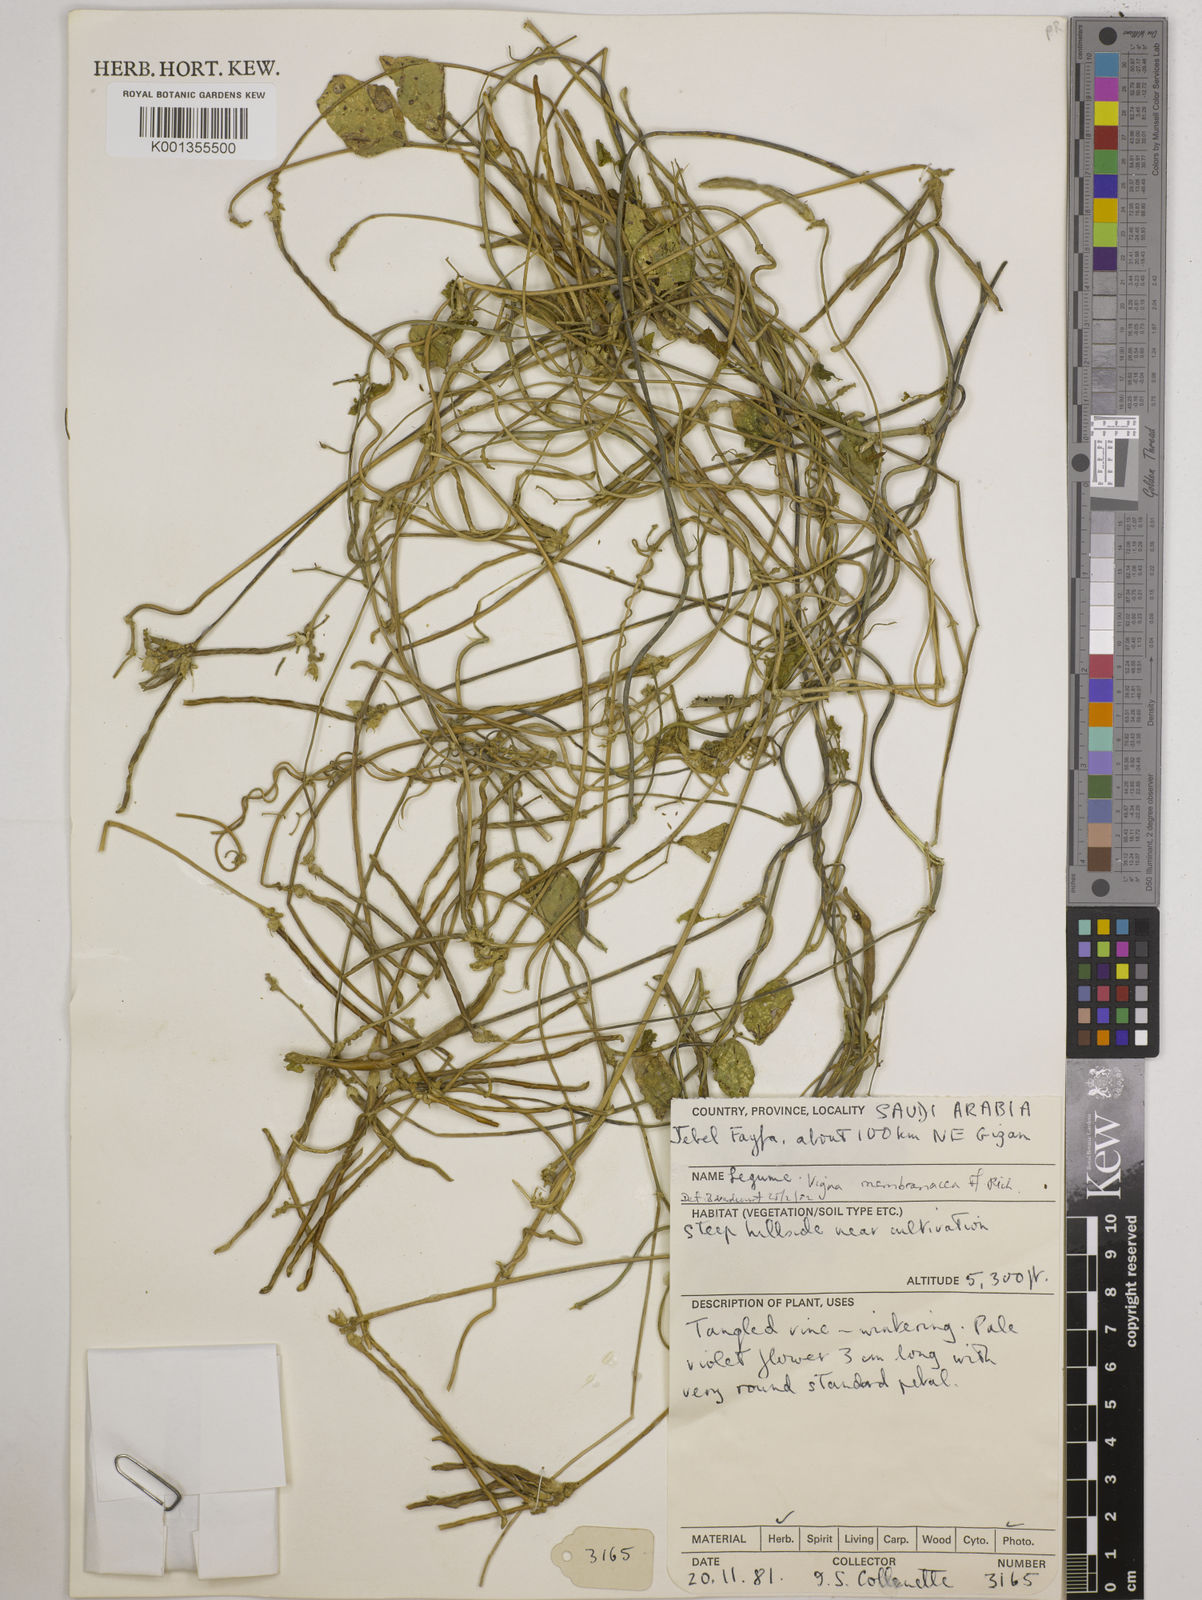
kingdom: Plantae
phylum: Tracheophyta
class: Magnoliopsida
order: Fabales
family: Fabaceae
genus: Vigna
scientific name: Vigna membranacea
